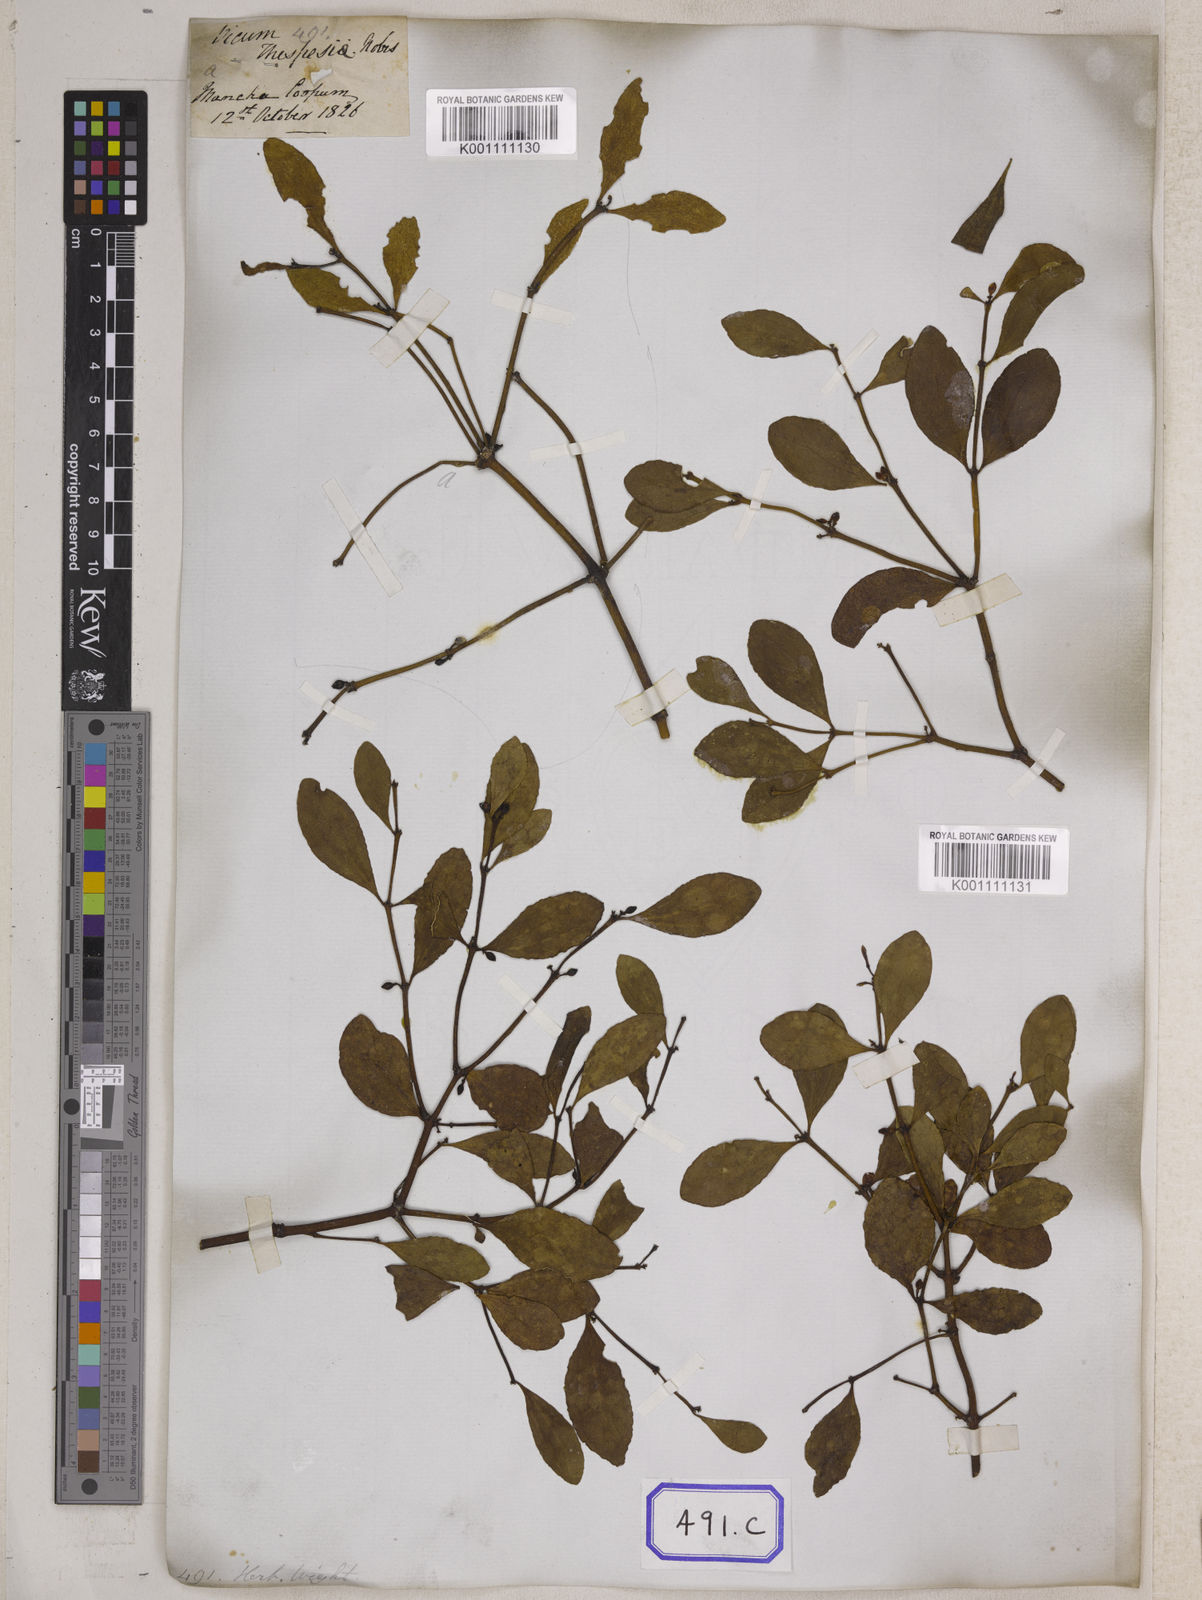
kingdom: Plantae
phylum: Tracheophyta
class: Magnoliopsida
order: Santalales
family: Viscaceae
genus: Viscum
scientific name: Viscum
